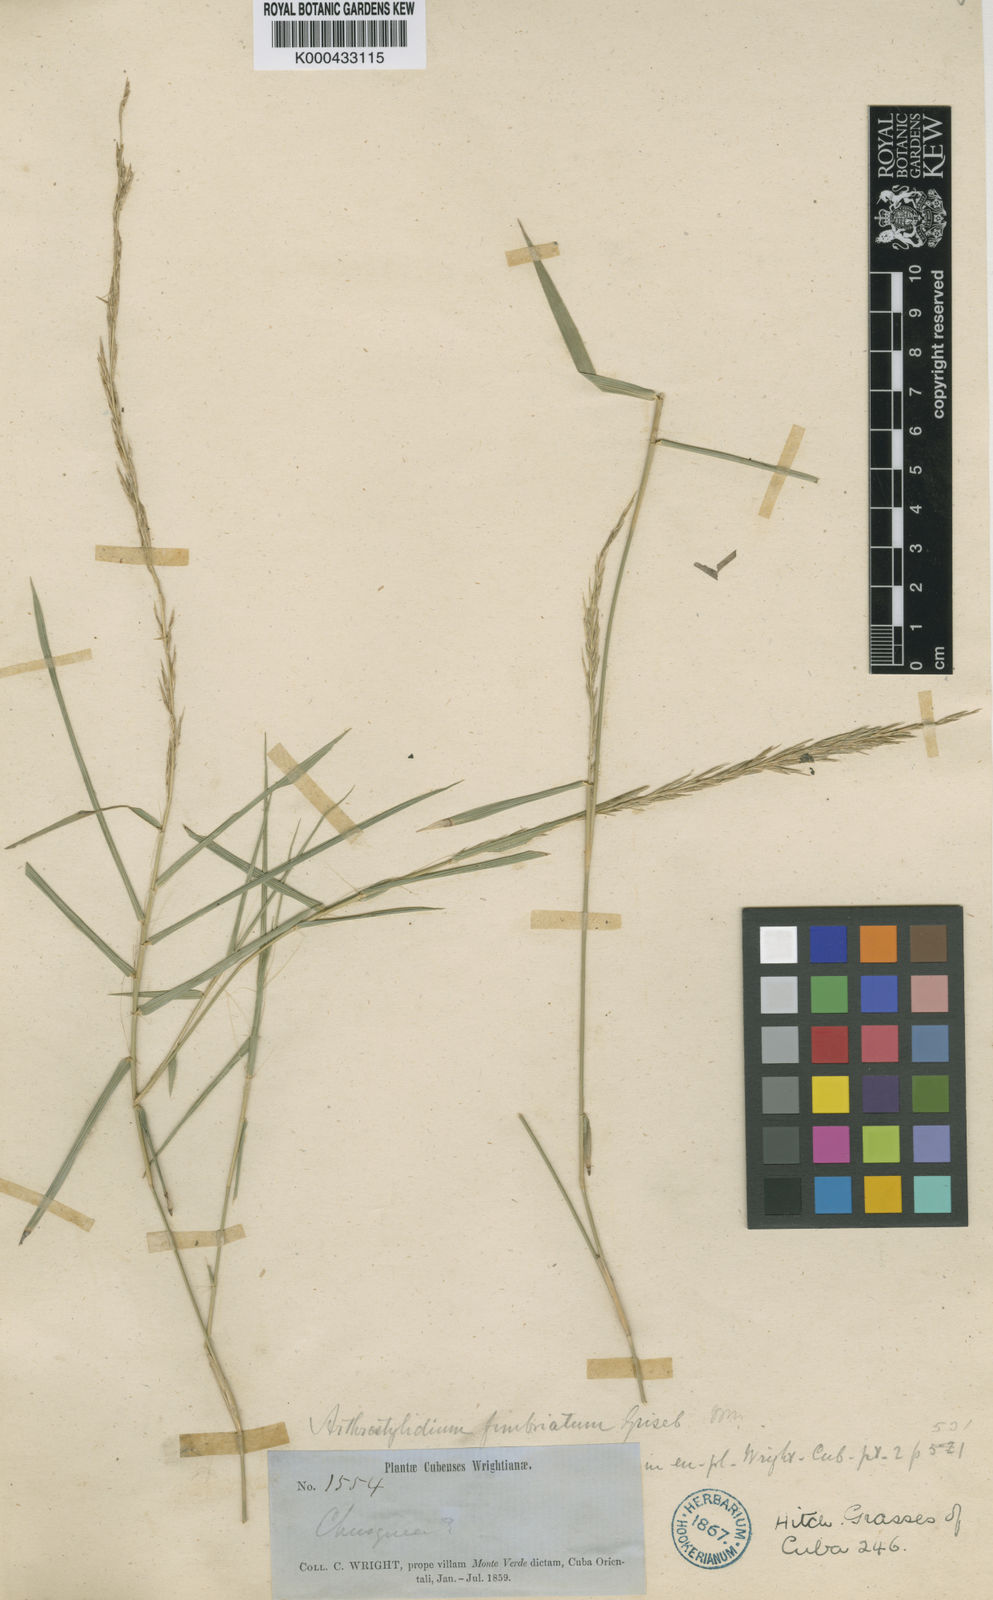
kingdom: Plantae
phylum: Tracheophyta
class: Liliopsida
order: Poales
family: Poaceae
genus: Arthrostylidium
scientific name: Arthrostylidium fimbriatum
